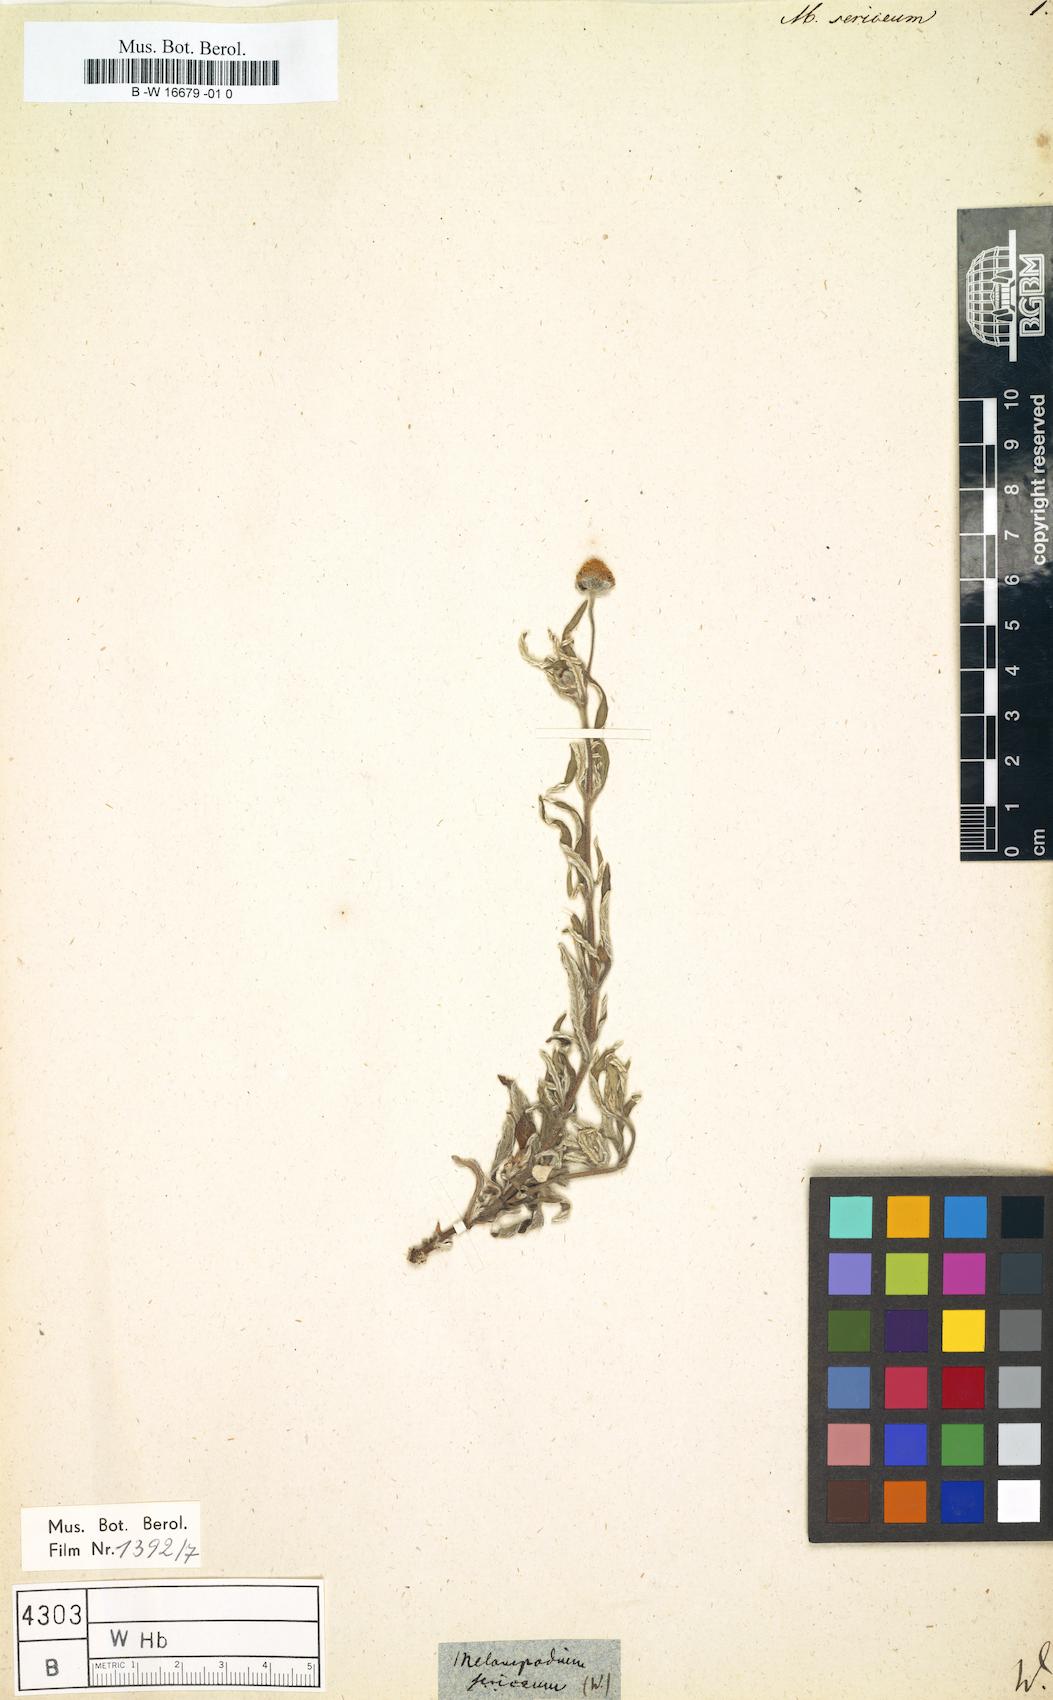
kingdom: Plantae
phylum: Tracheophyta
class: Magnoliopsida
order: Asterales
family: Asteraceae
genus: Melampodium
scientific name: Melampodium sericeum
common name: Rough blackfoot
